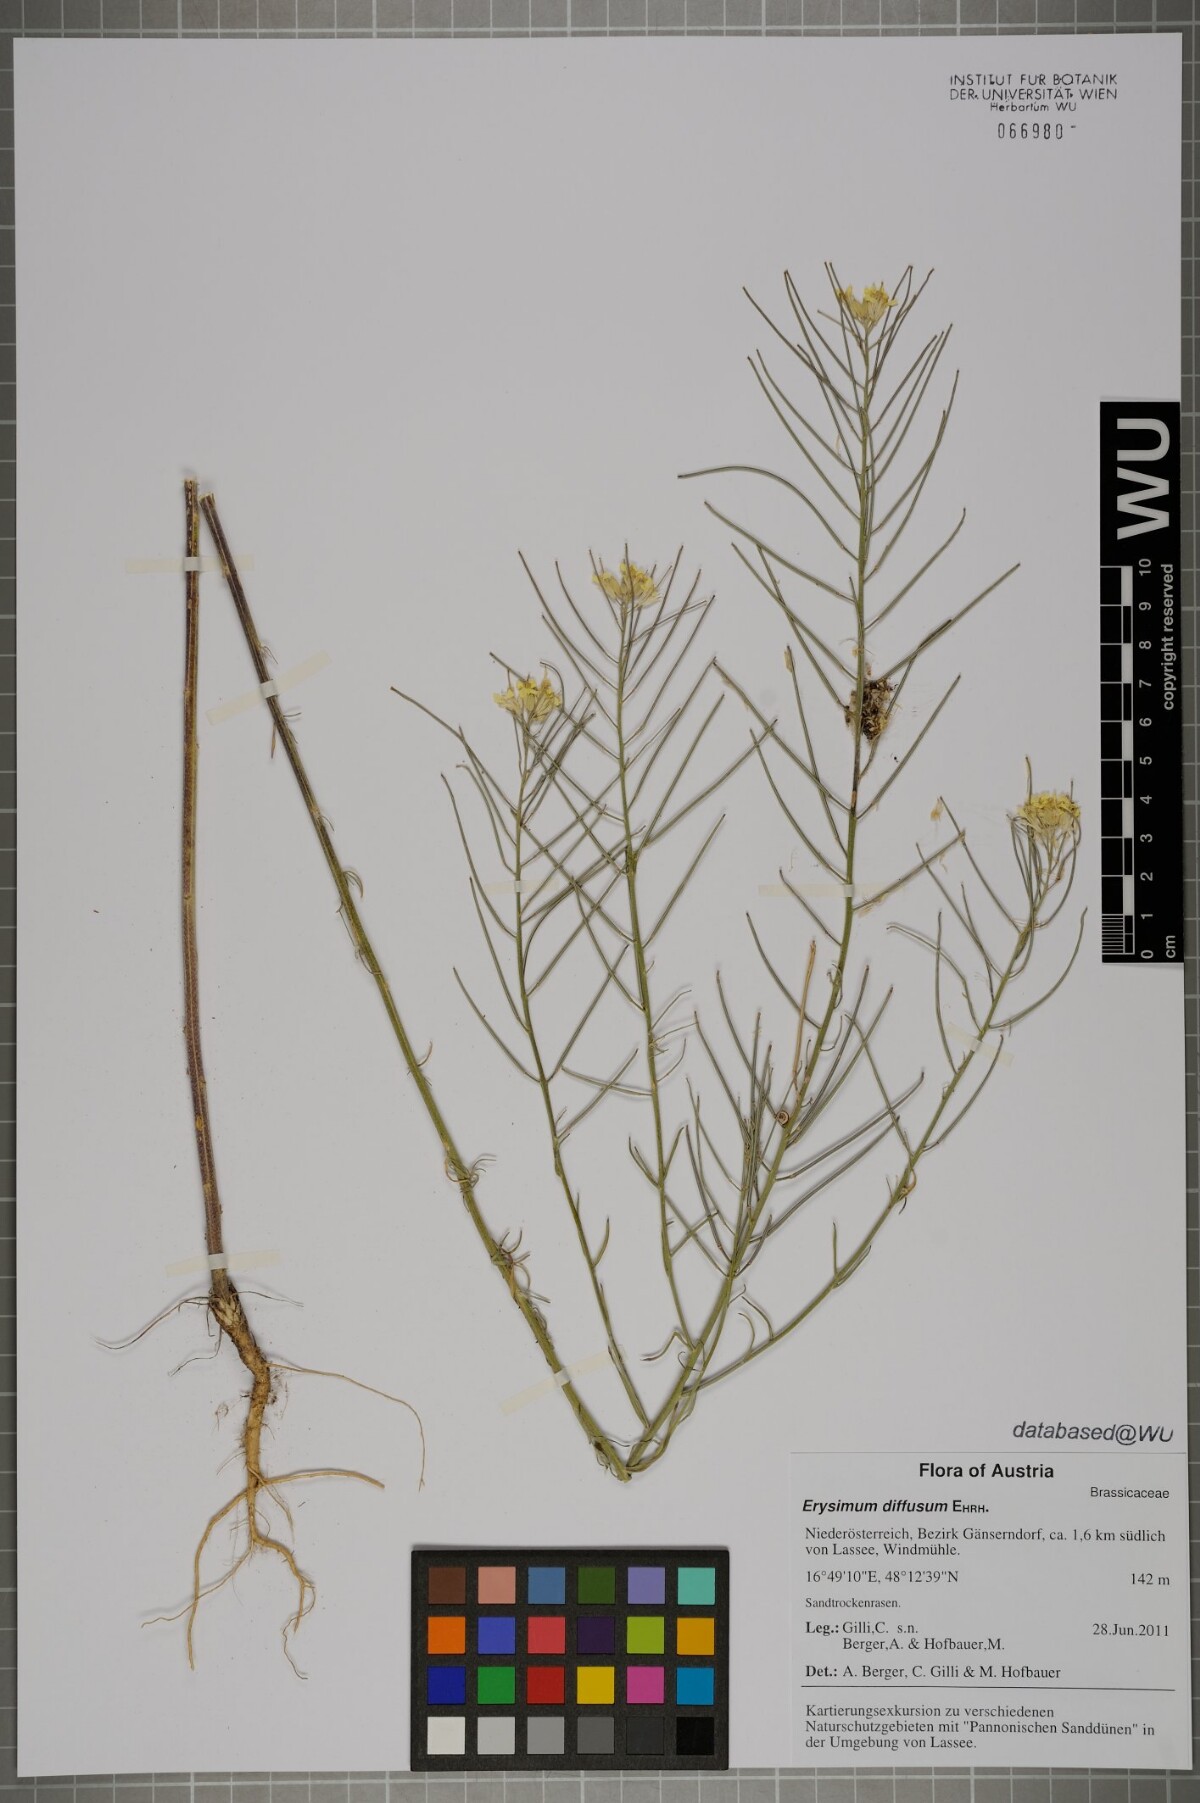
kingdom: Plantae
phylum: Tracheophyta
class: Magnoliopsida
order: Brassicales
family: Brassicaceae
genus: Erysimum
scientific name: Erysimum diffusum
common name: Diffuse wallflower
